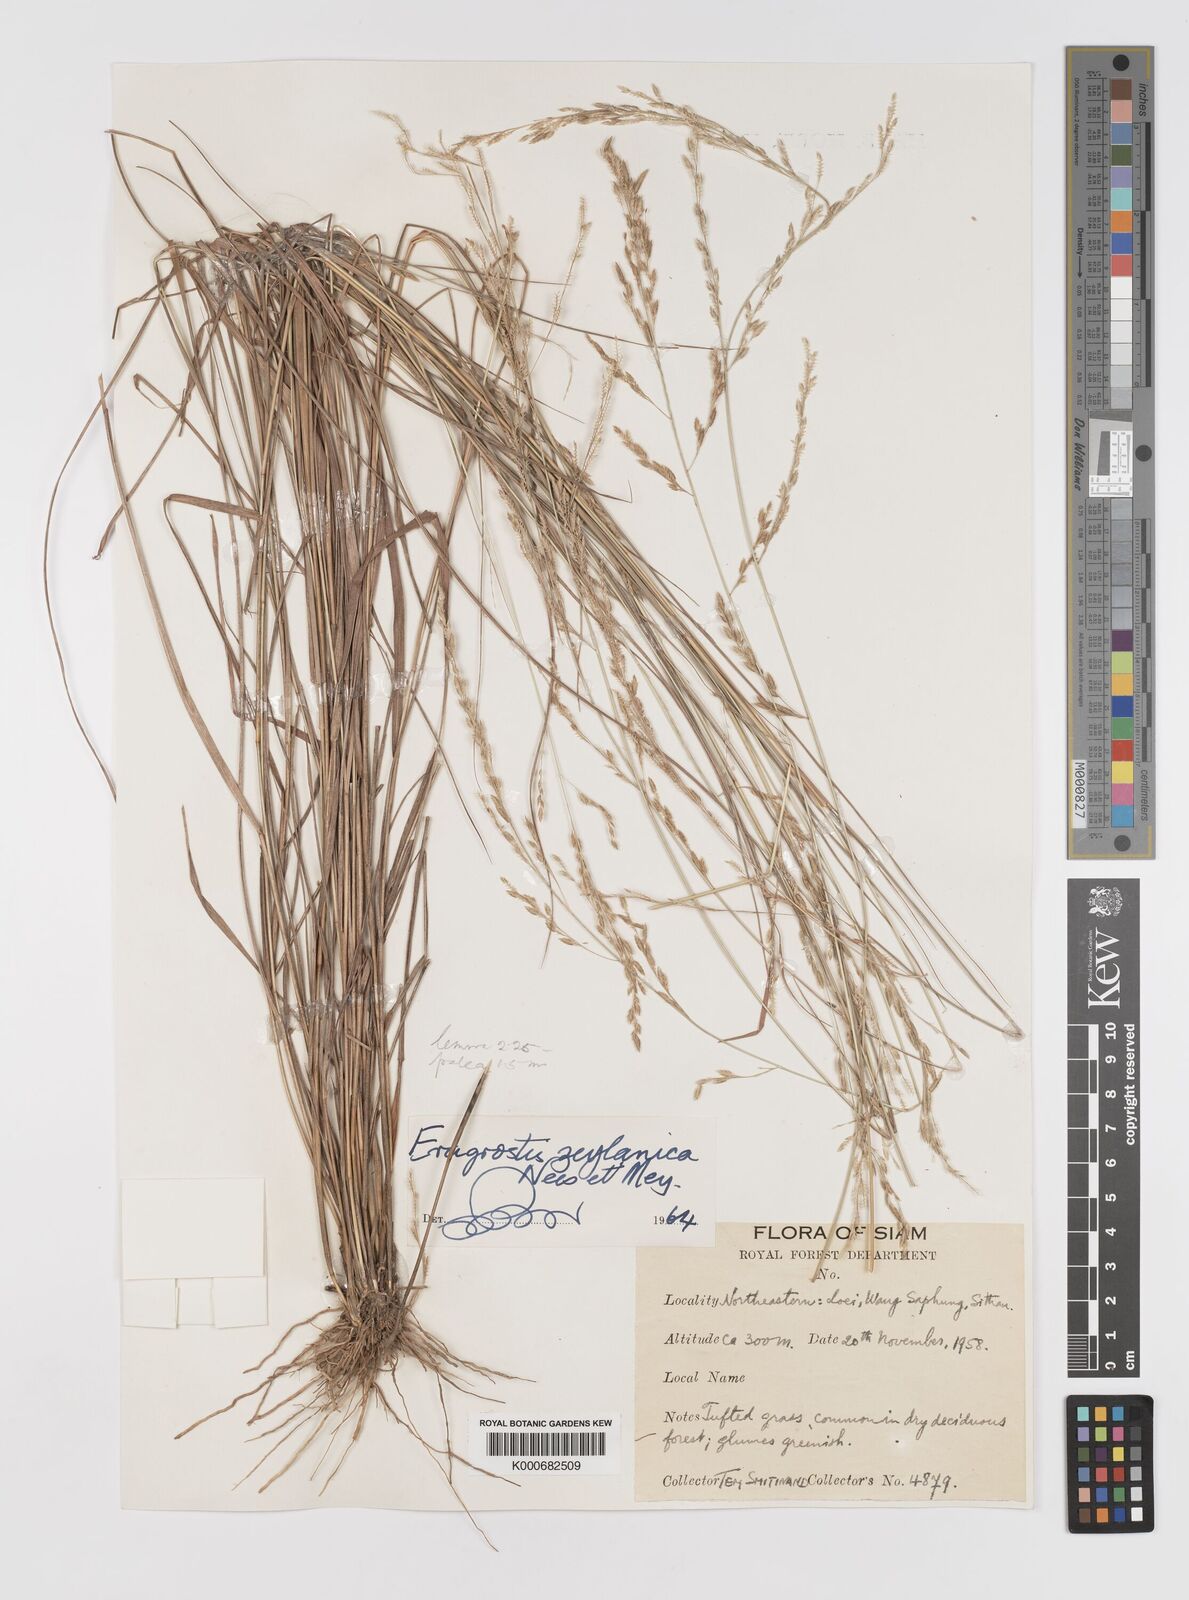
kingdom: Plantae
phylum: Tracheophyta
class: Liliopsida
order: Poales
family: Poaceae
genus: Eragrostis
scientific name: Eragrostis brownii
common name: Lovegrass
